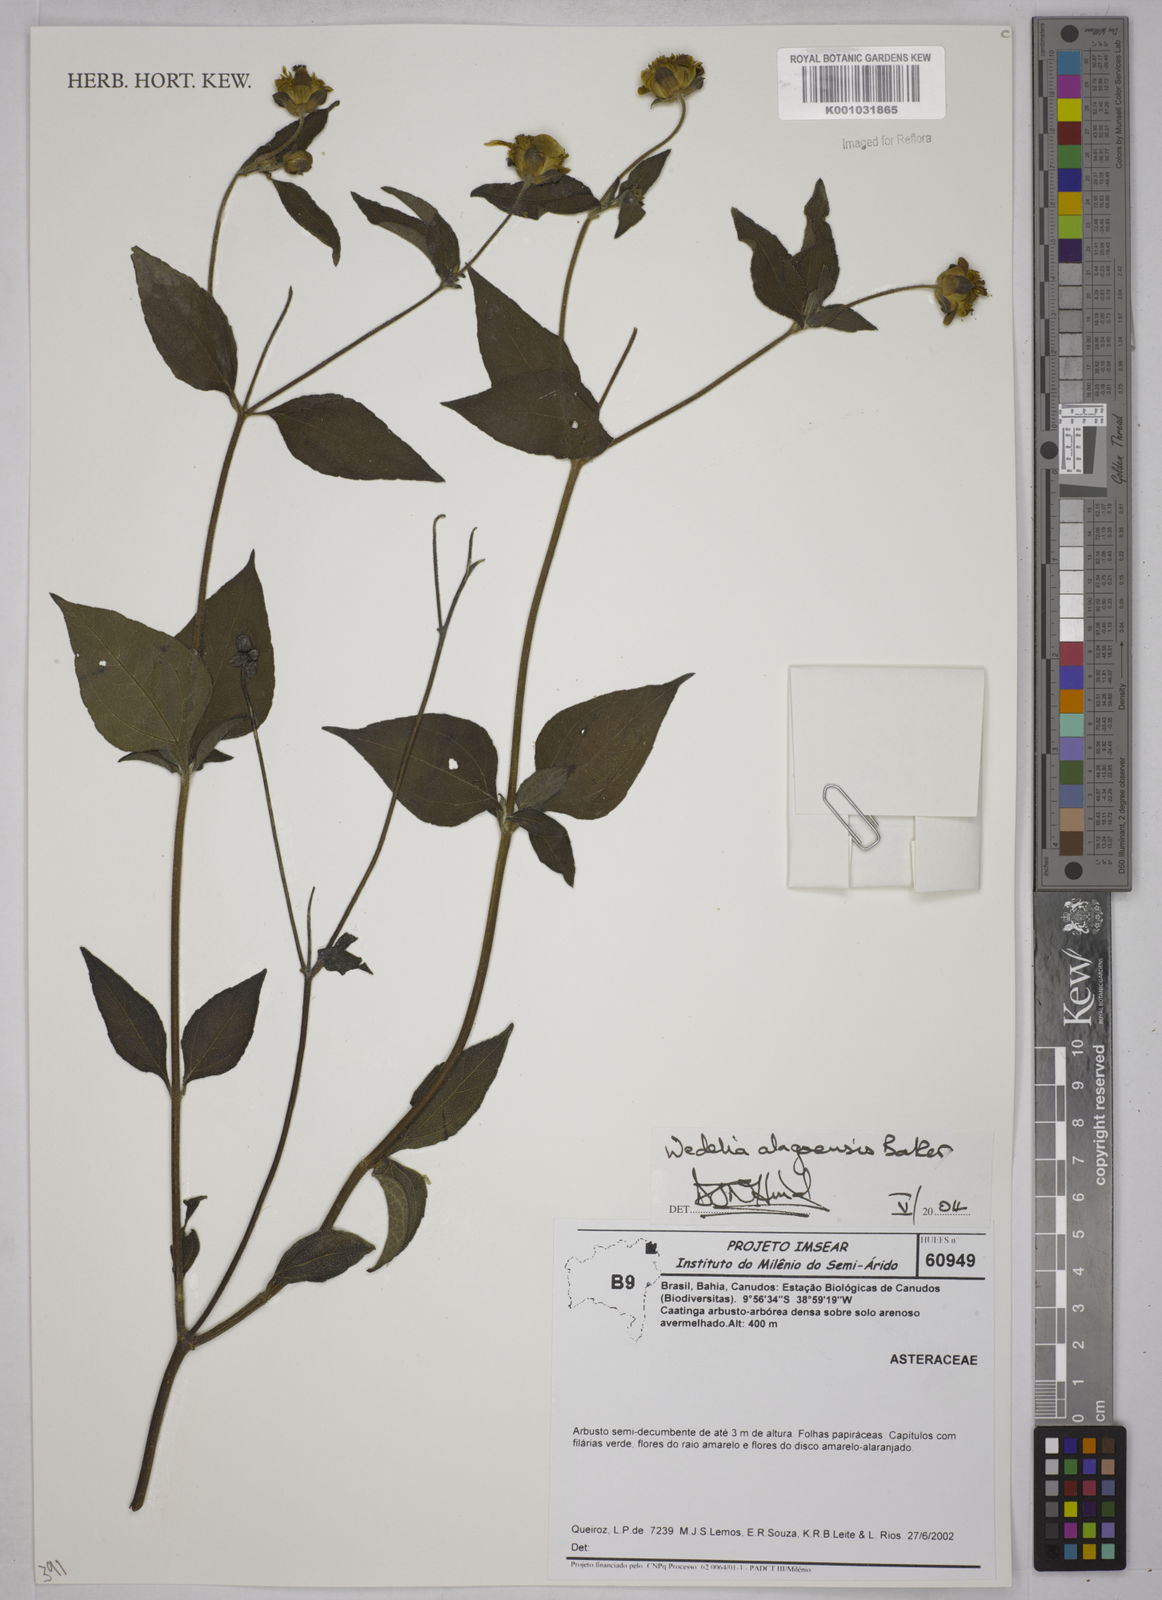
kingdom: Plantae
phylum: Tracheophyta
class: Magnoliopsida
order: Asterales
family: Asteraceae
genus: Wedelia
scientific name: Wedelia hookeriana
